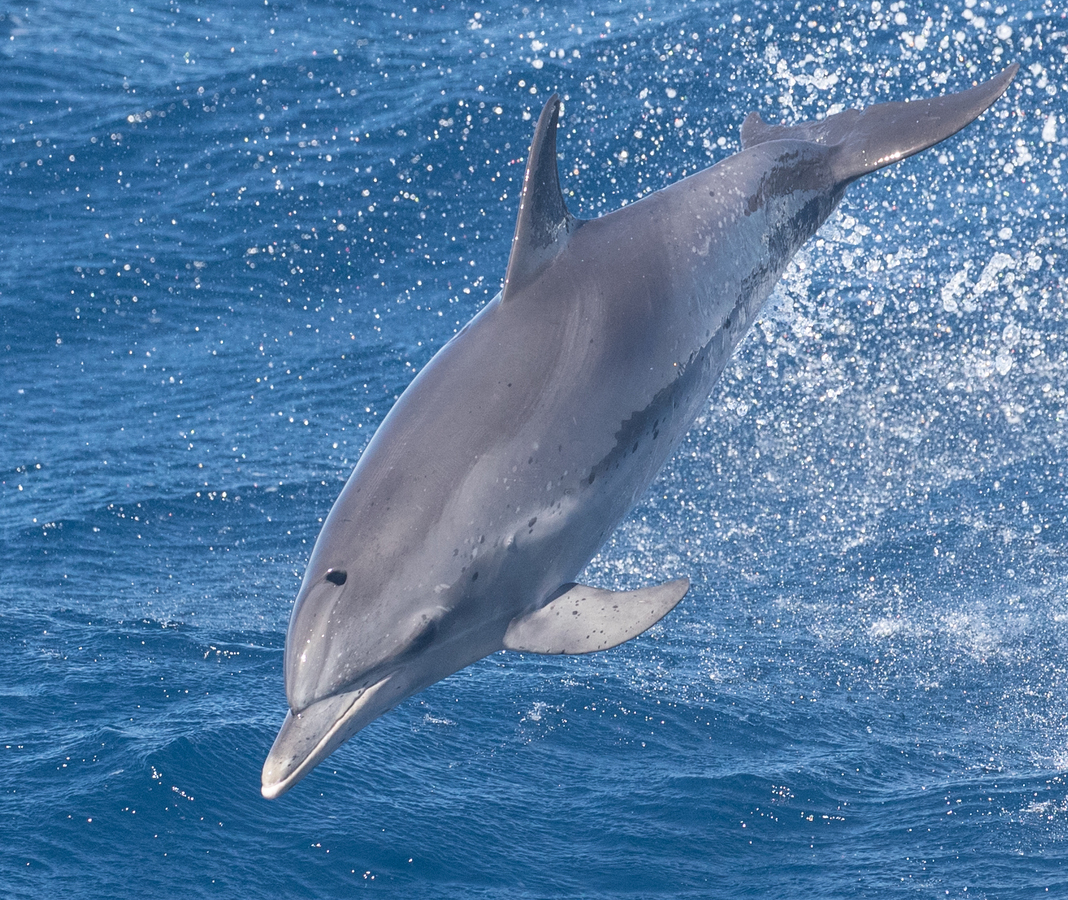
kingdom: Animalia
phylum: Chordata
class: Mammalia
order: Cetacea
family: Delphinidae
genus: Stenella
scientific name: Stenella frontalis
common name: Atlantic spotted dolphin
